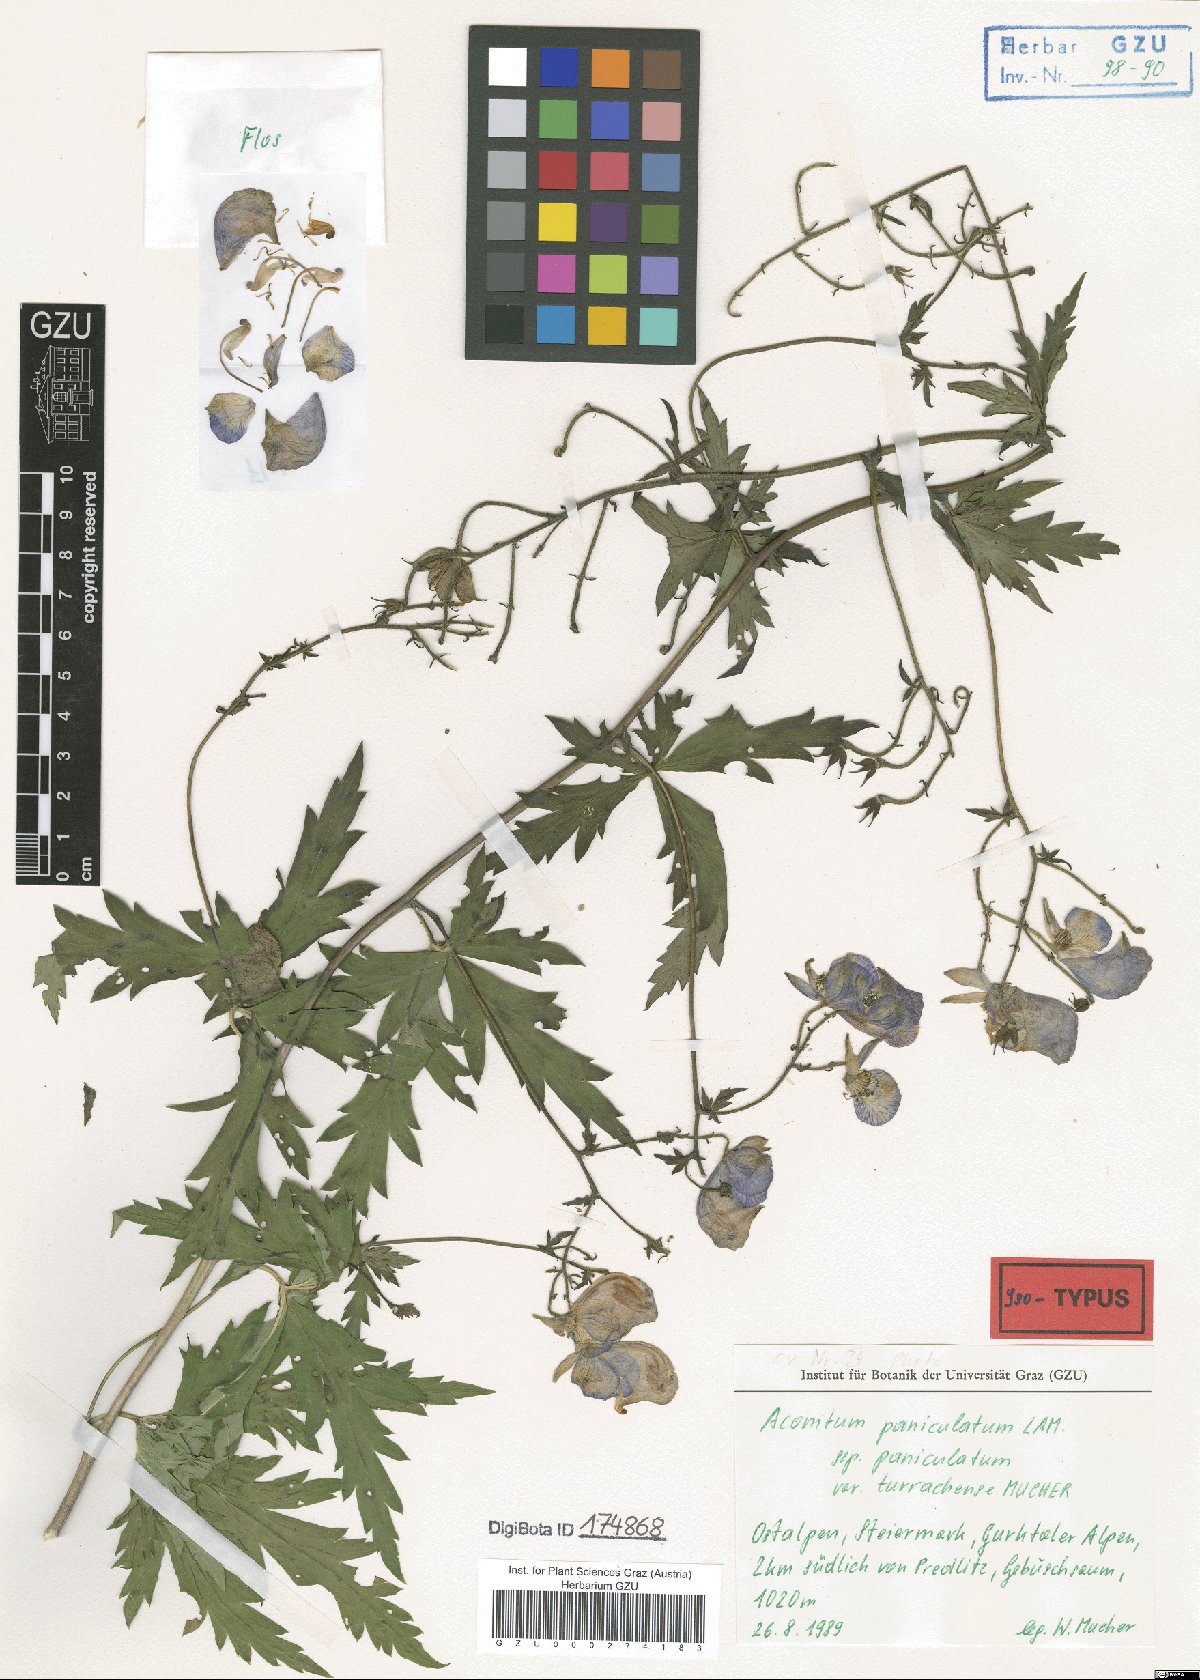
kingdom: Plantae
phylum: Tracheophyta
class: Magnoliopsida
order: Ranunculales
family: Ranunculaceae
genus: Aconitum
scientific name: Aconitum degenii
